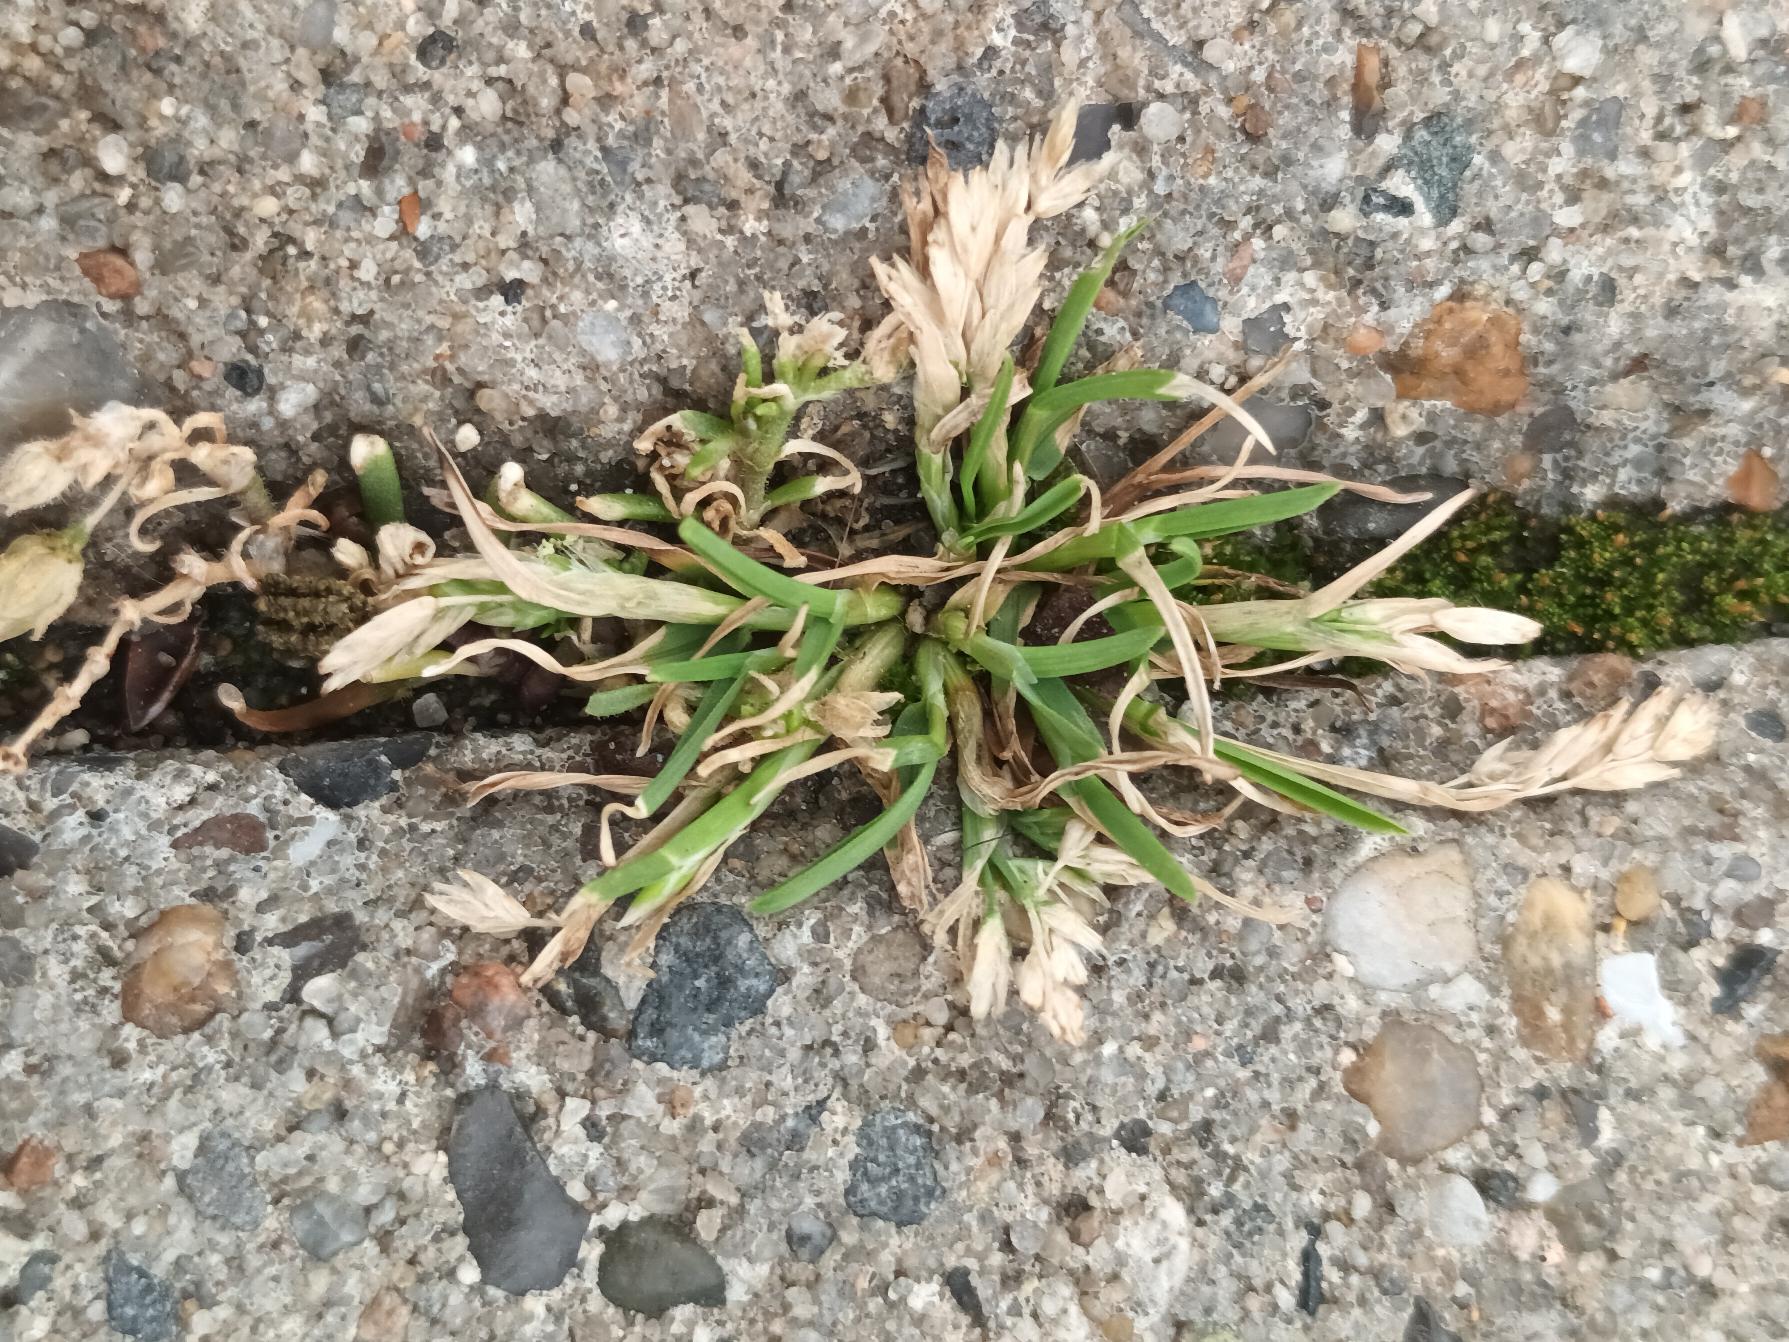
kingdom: Plantae
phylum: Tracheophyta
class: Liliopsida
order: Poales
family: Poaceae
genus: Poa
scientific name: Poa annua
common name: Enårig rapgræs
